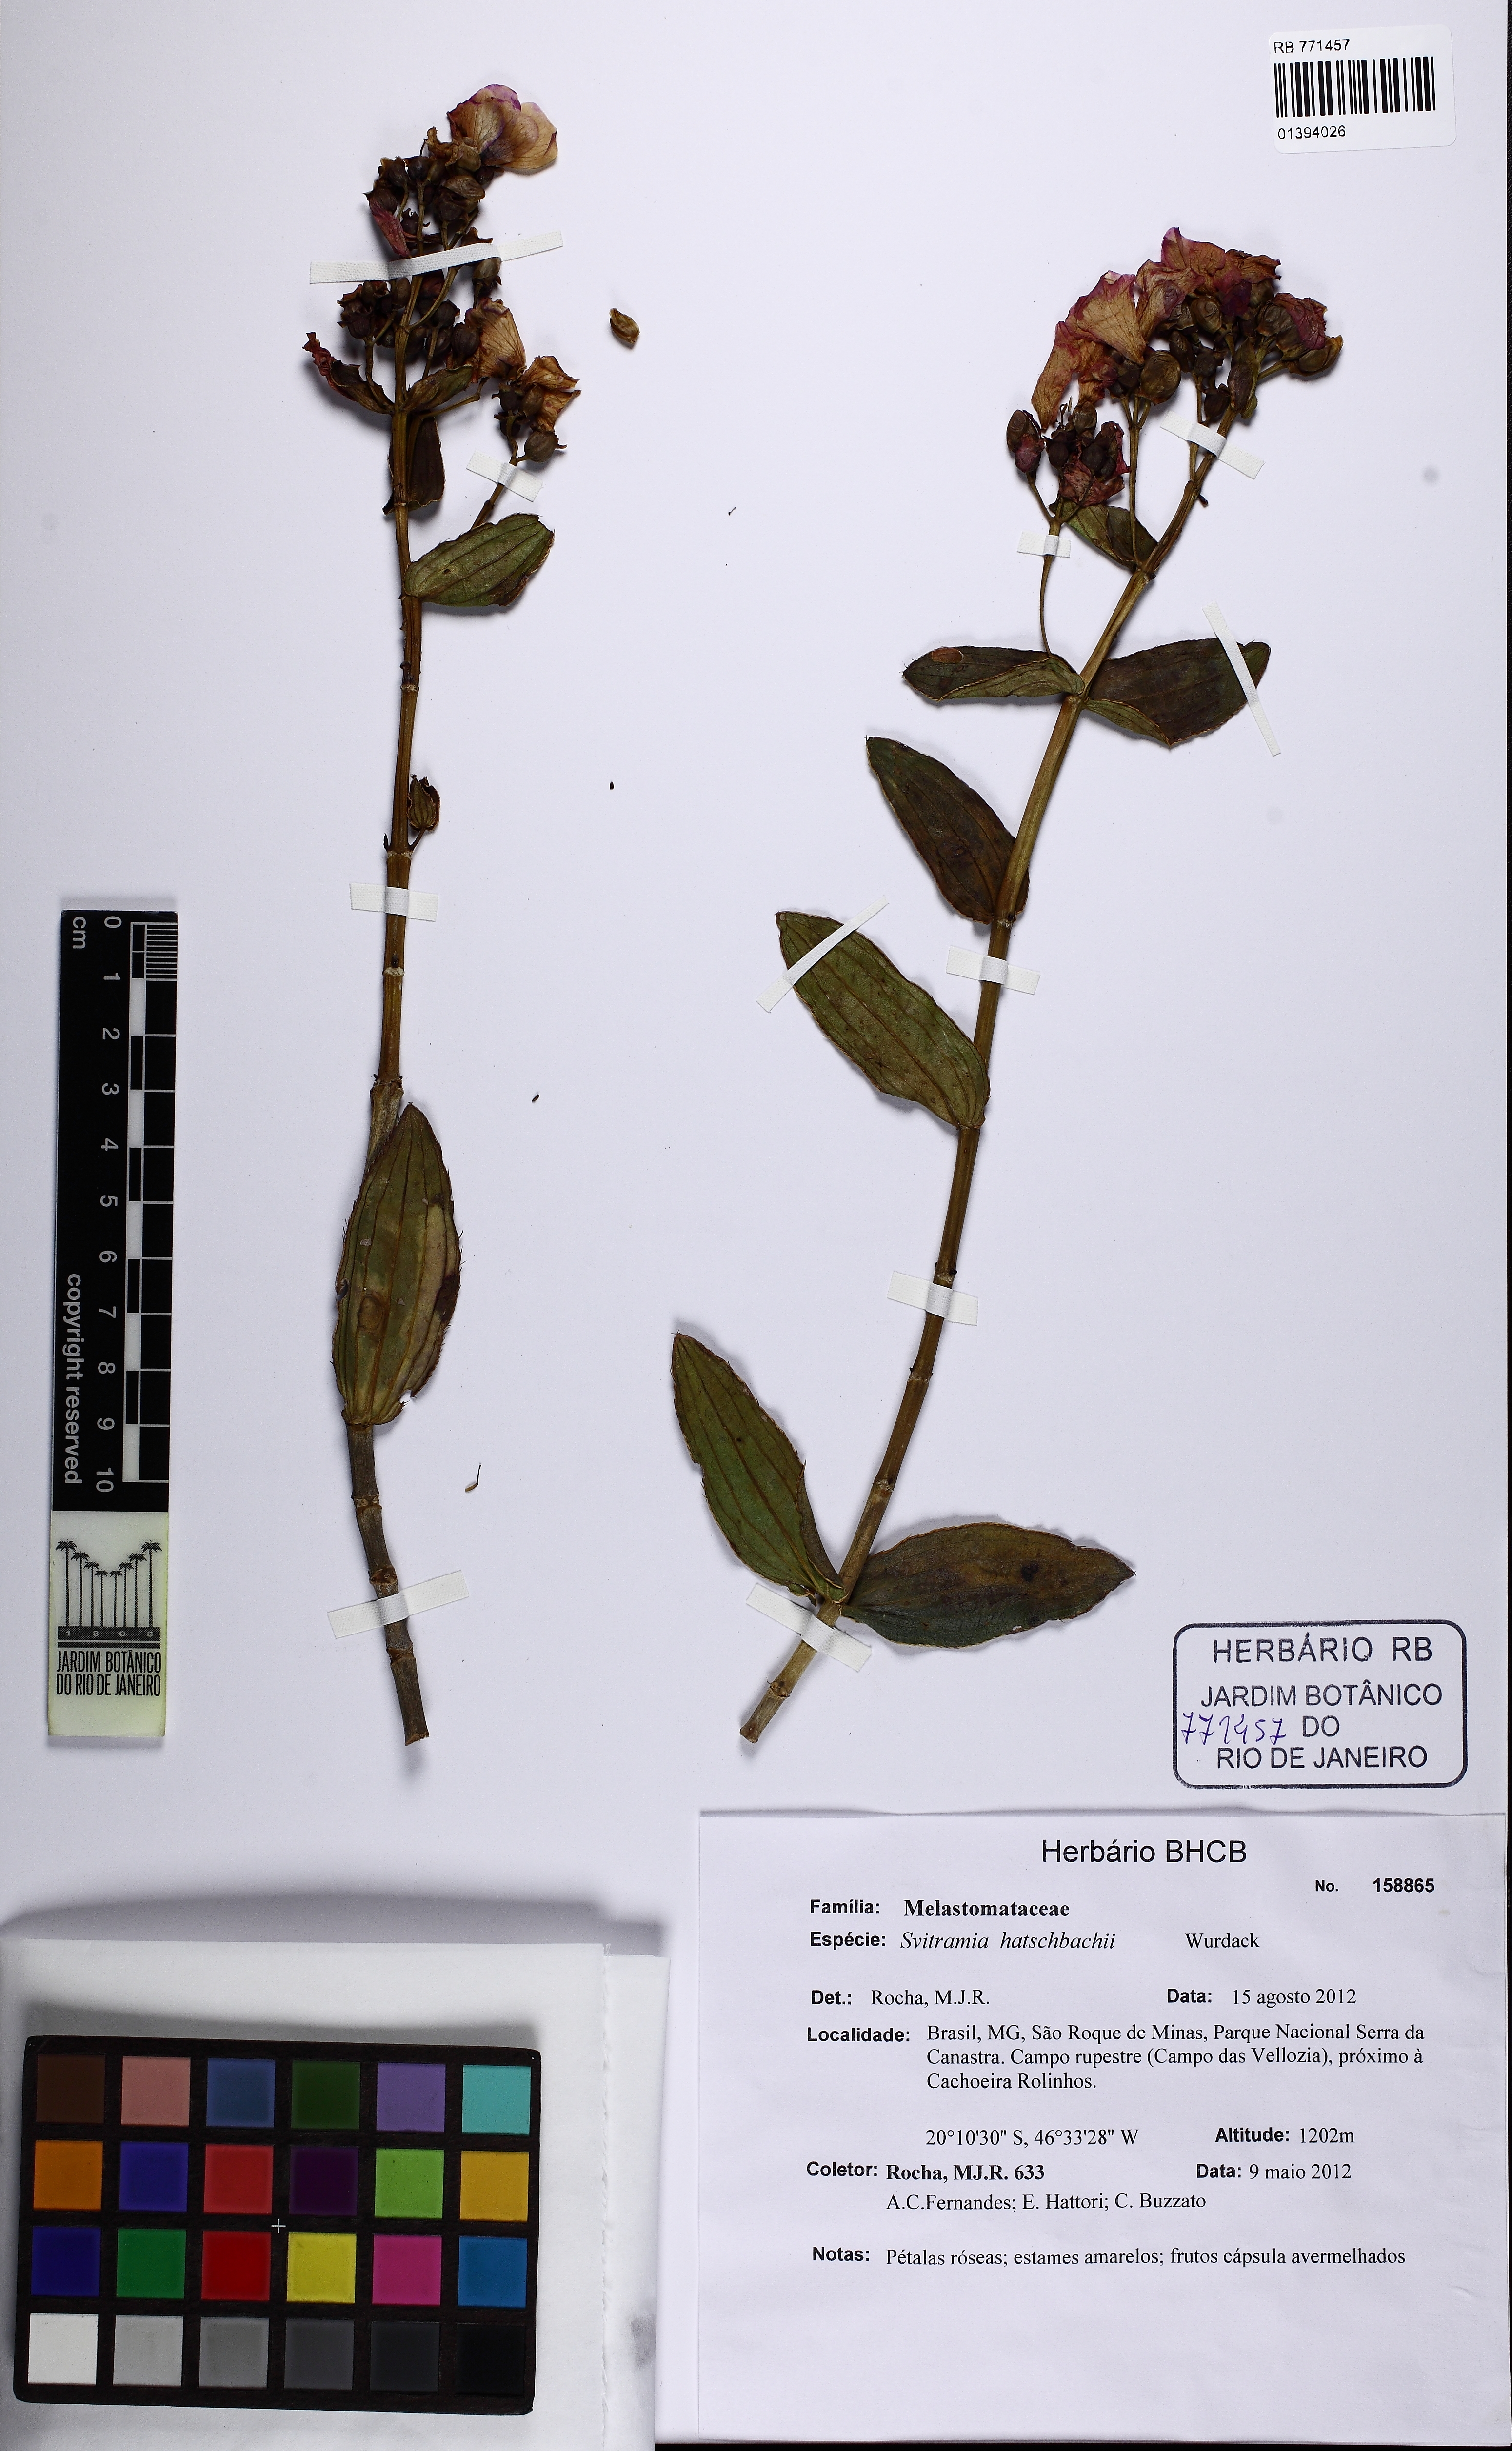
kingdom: Plantae
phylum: Tracheophyta
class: Magnoliopsida
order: Myrtales
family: Melastomataceae
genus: Pleroma
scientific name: Pleroma gertii
